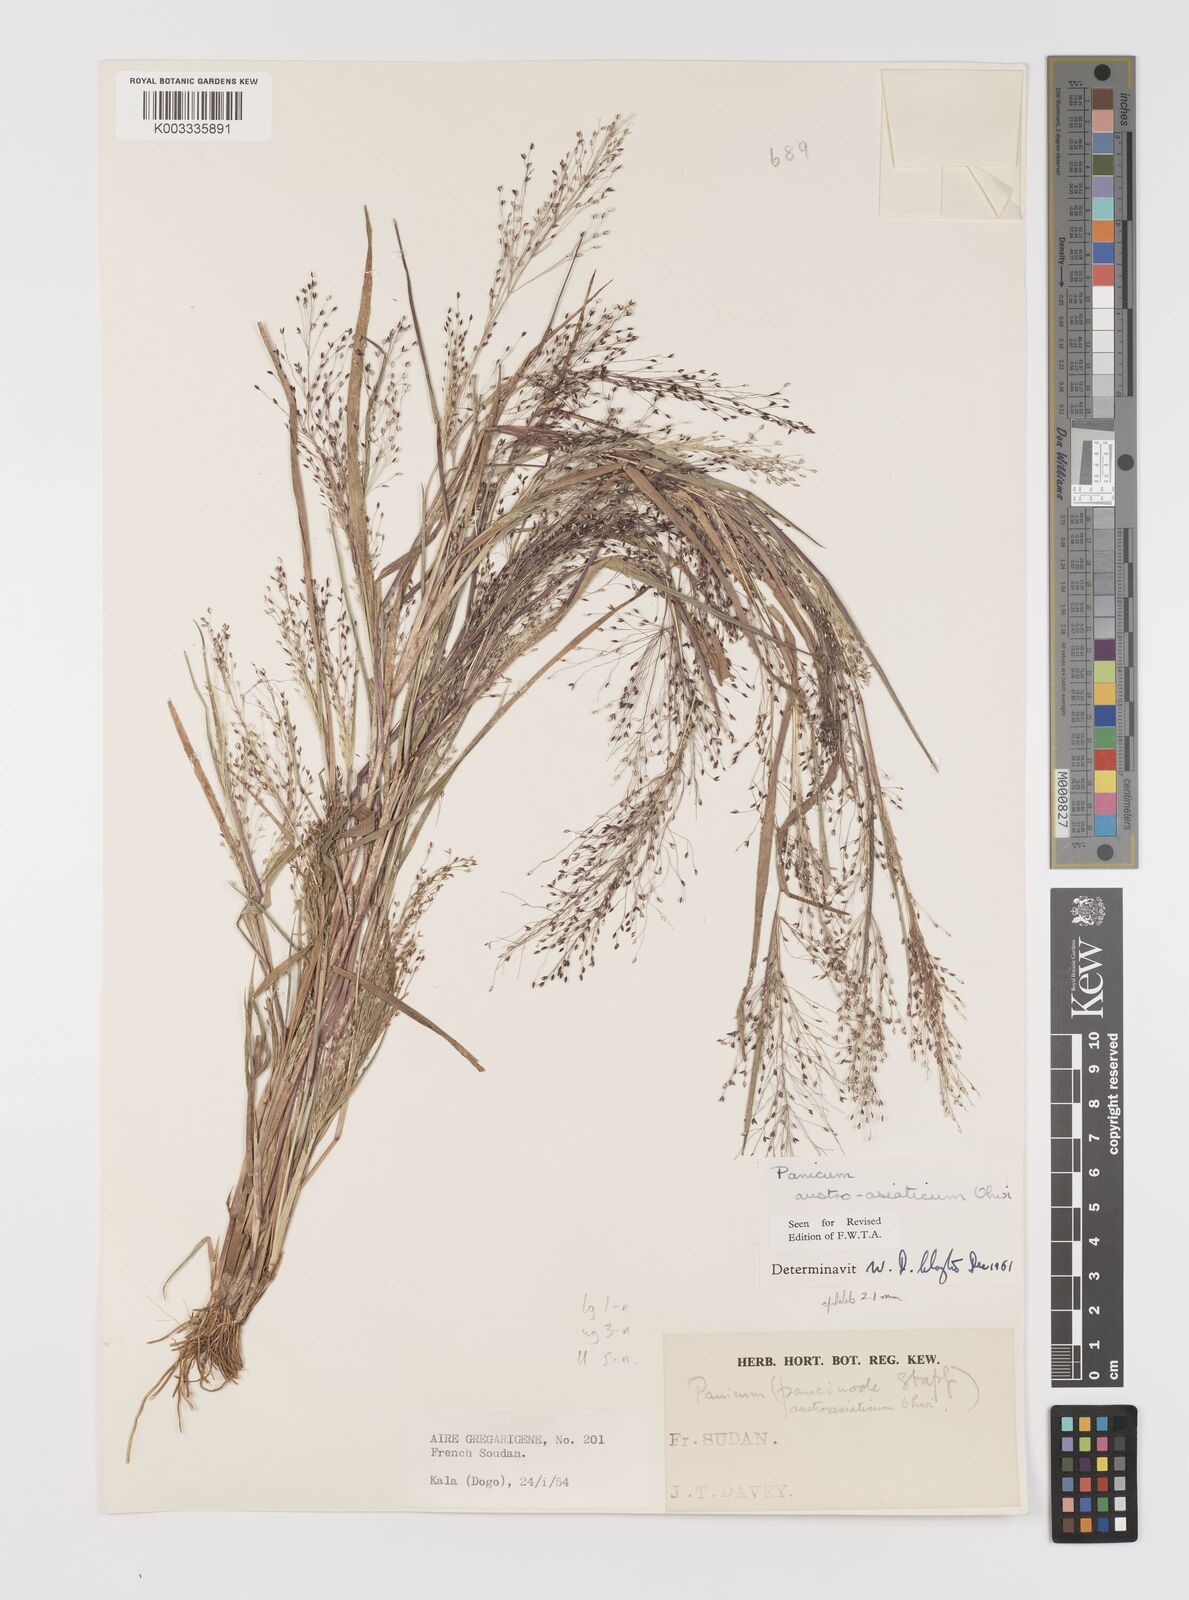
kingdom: Plantae
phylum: Tracheophyta
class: Liliopsida
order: Poales
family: Poaceae
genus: Panicum
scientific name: Panicum humile
